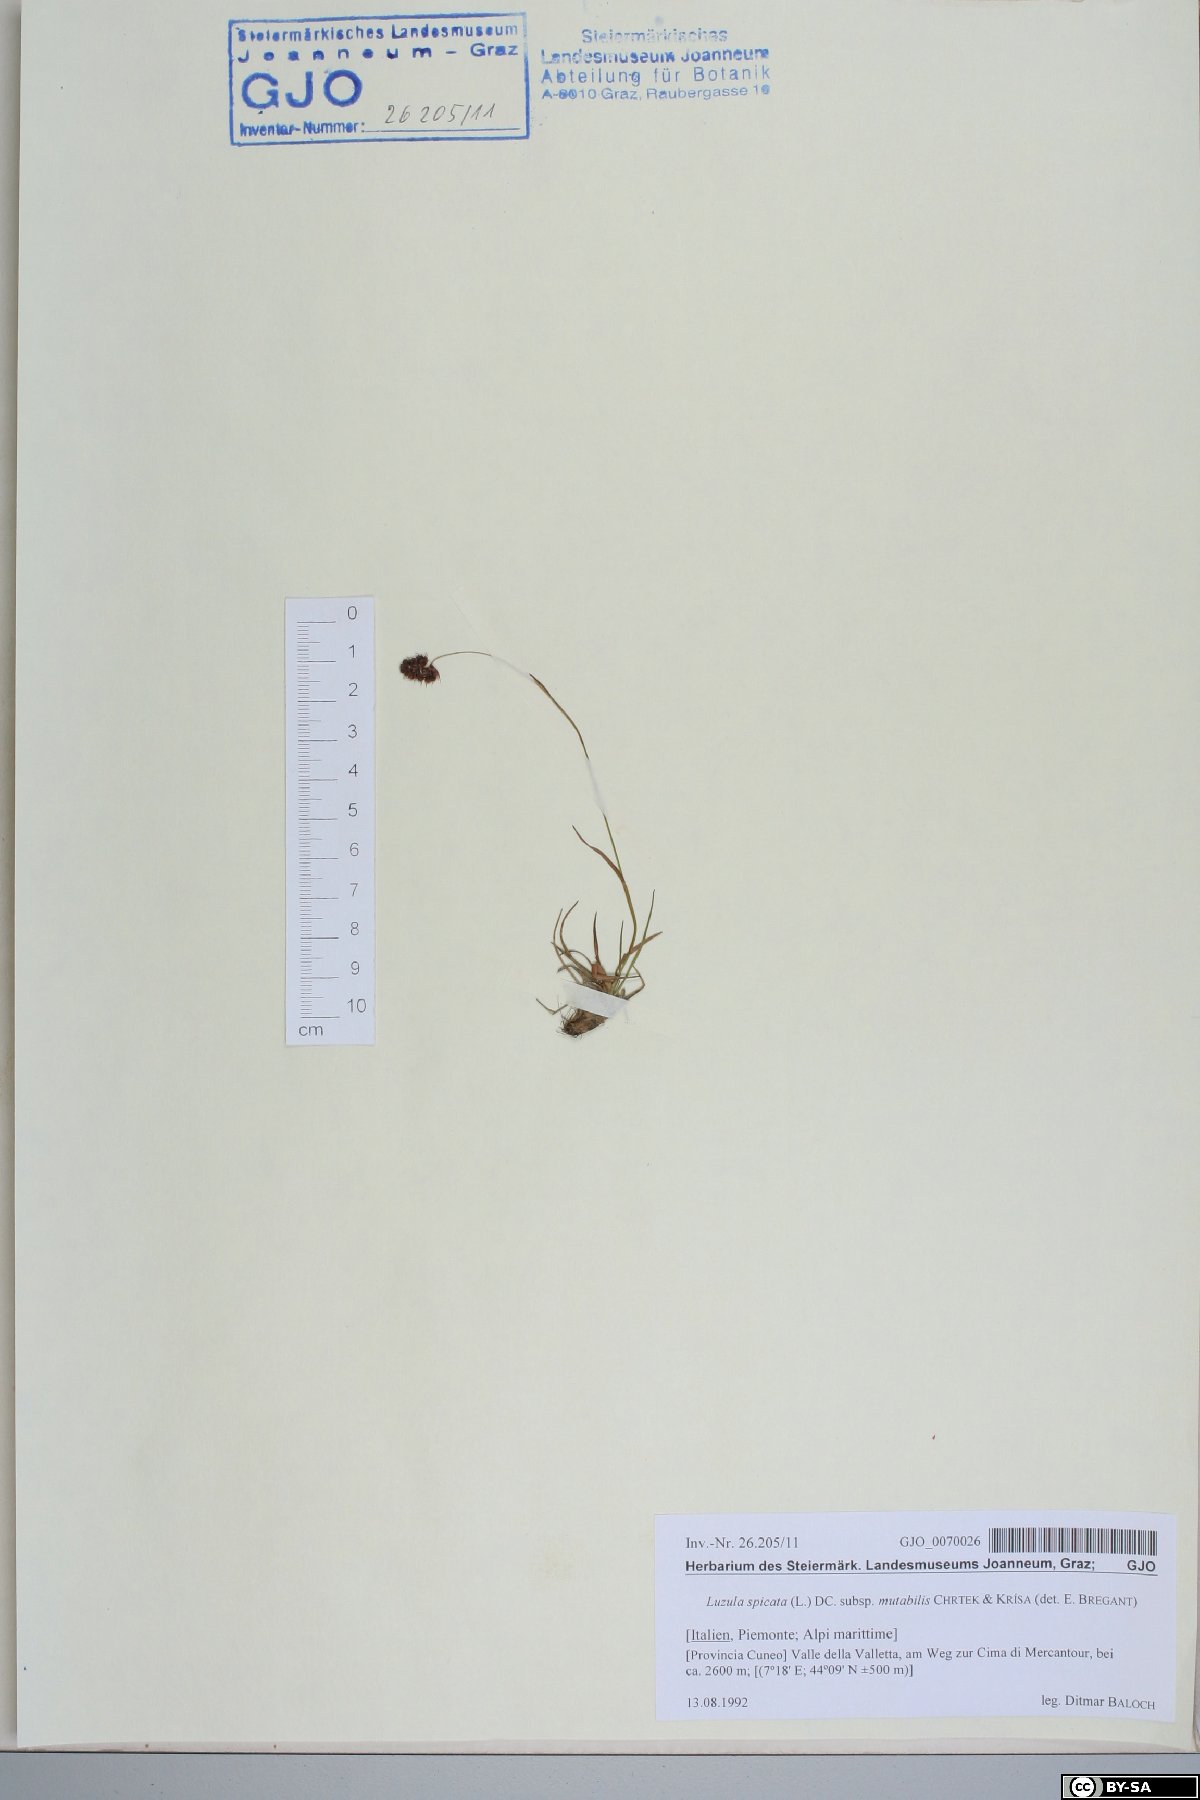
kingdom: Plantae
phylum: Tracheophyta
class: Liliopsida
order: Poales
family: Juncaceae
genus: Luzula
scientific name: Luzula spicata
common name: Spiked wood-rush
